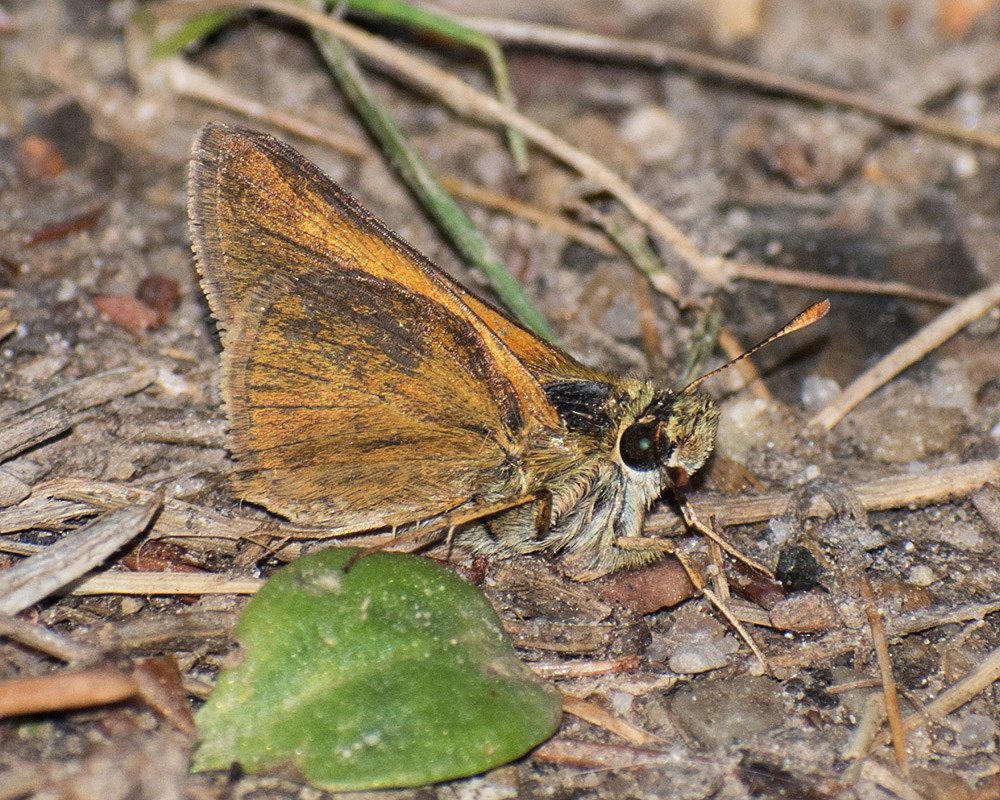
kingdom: Animalia
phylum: Arthropoda
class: Insecta
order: Lepidoptera
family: Hesperiidae
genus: Polites
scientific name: Polites themistocles
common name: Tawny-edged Skipper
